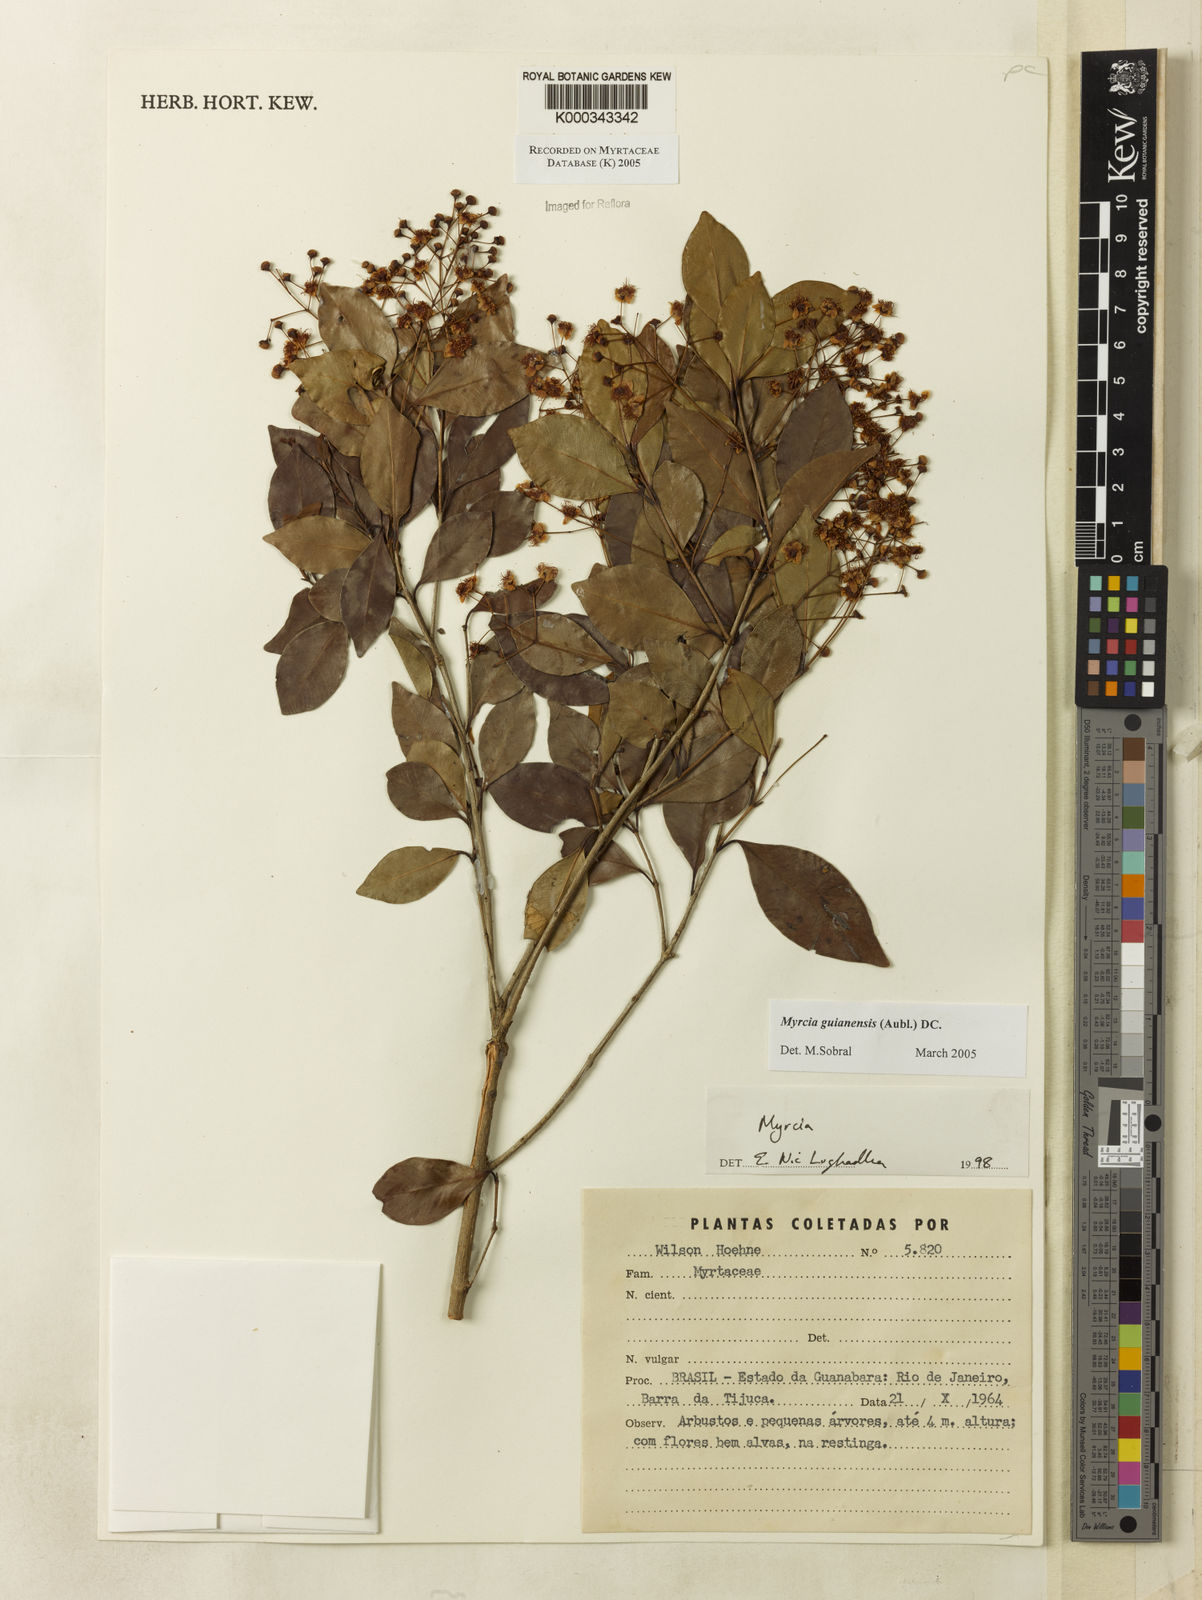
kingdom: Plantae
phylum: Tracheophyta
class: Magnoliopsida
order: Myrtales
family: Myrtaceae
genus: Myrcia
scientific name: Myrcia guianensis
